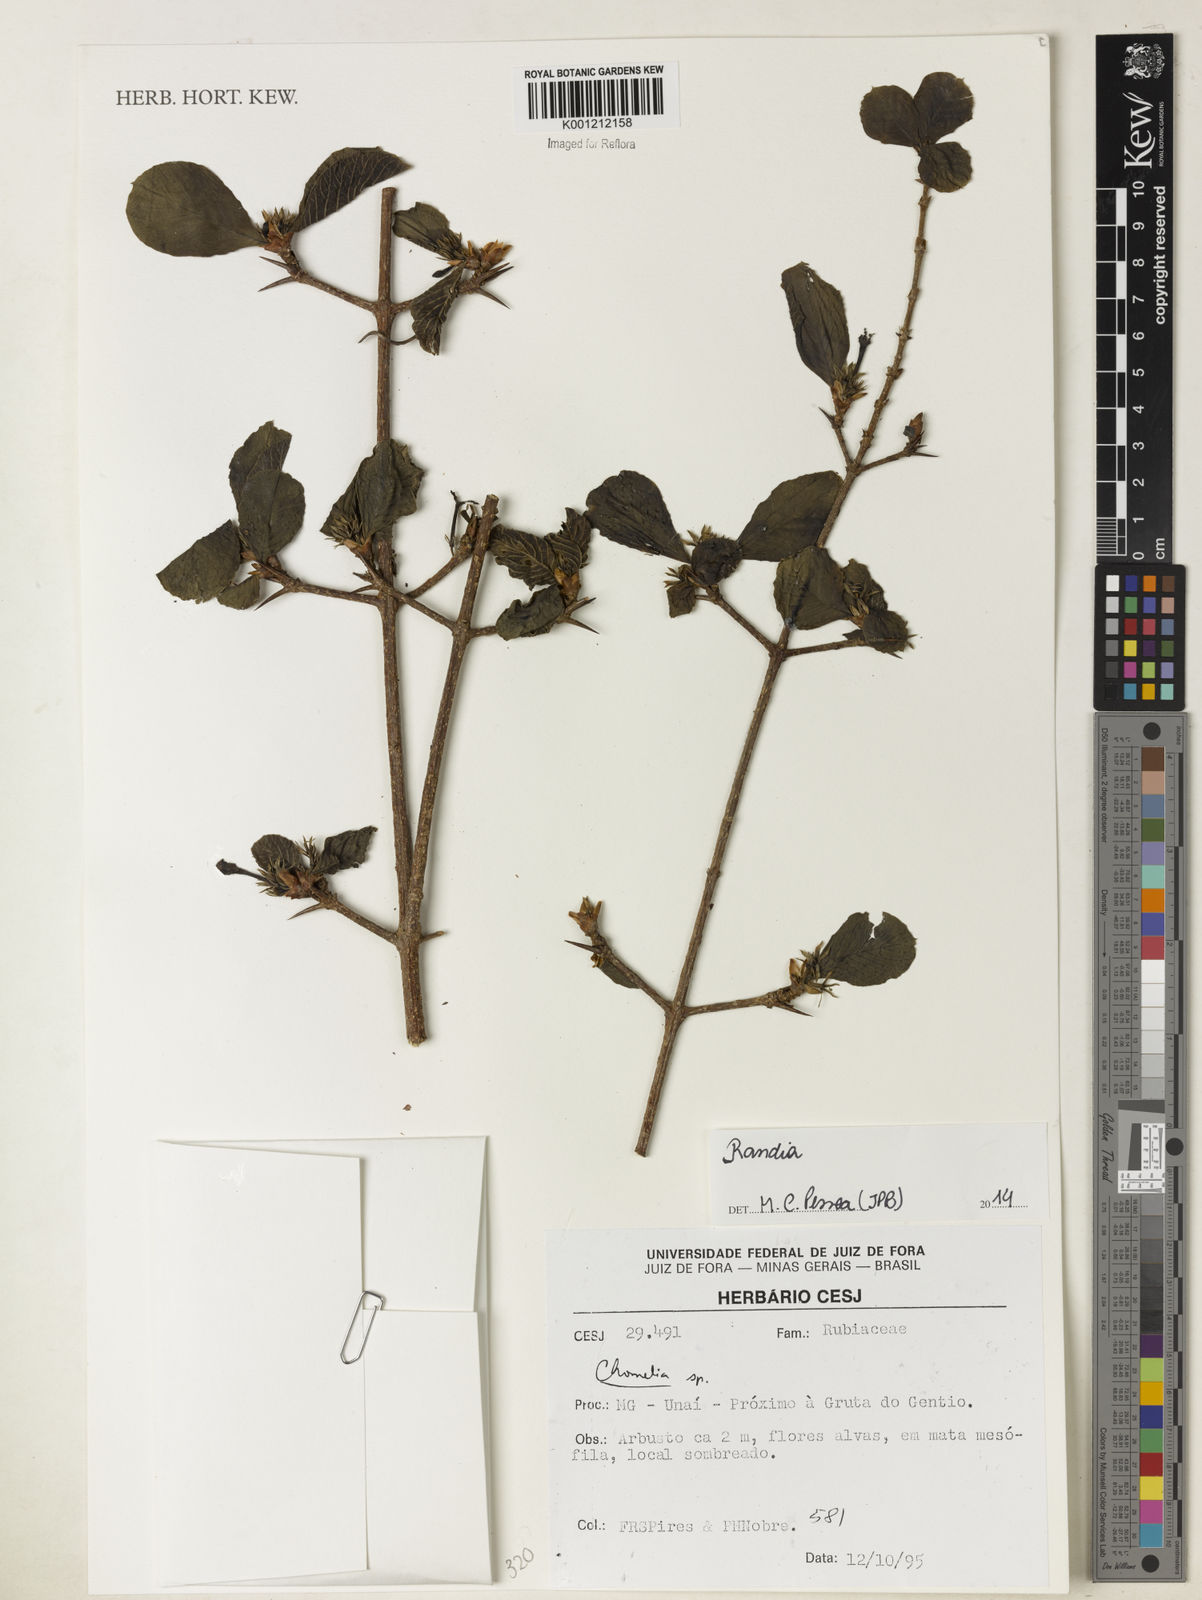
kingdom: Plantae
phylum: Tracheophyta
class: Magnoliopsida
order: Gentianales
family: Rubiaceae
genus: Randia
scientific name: Randia
